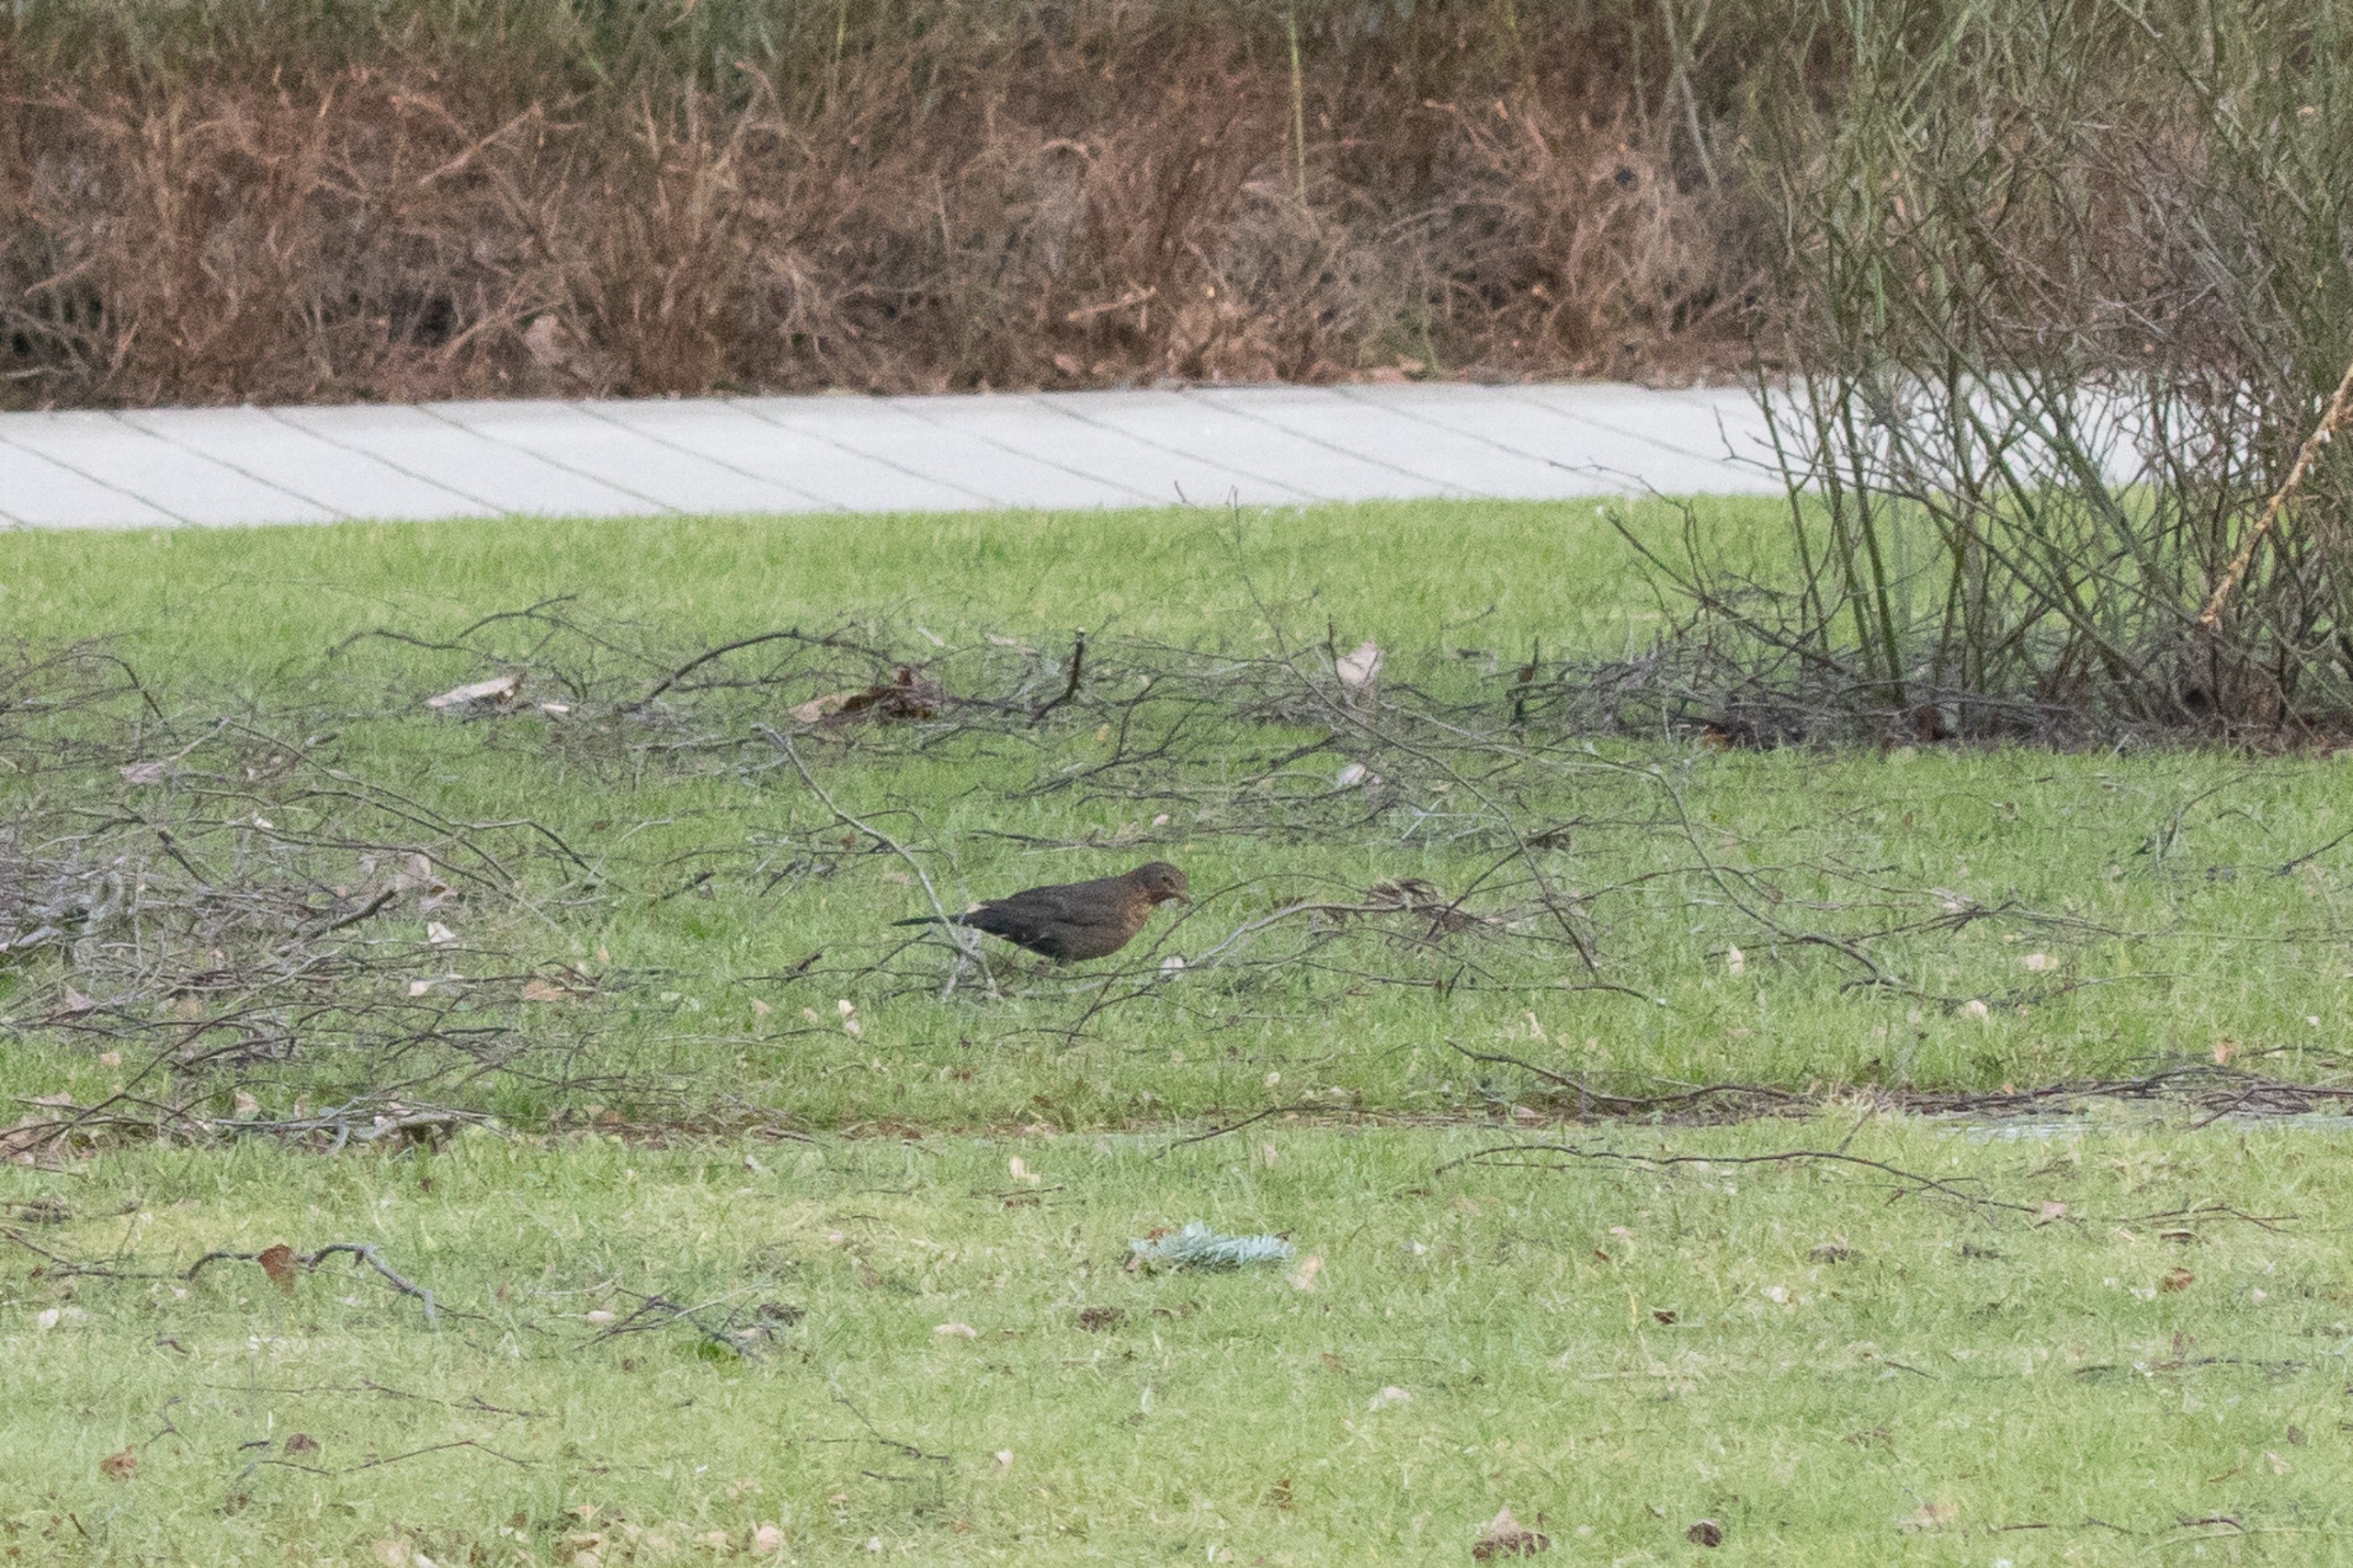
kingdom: Animalia
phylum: Chordata
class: Aves
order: Passeriformes
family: Turdidae
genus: Turdus
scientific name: Turdus merula
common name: Solsort
